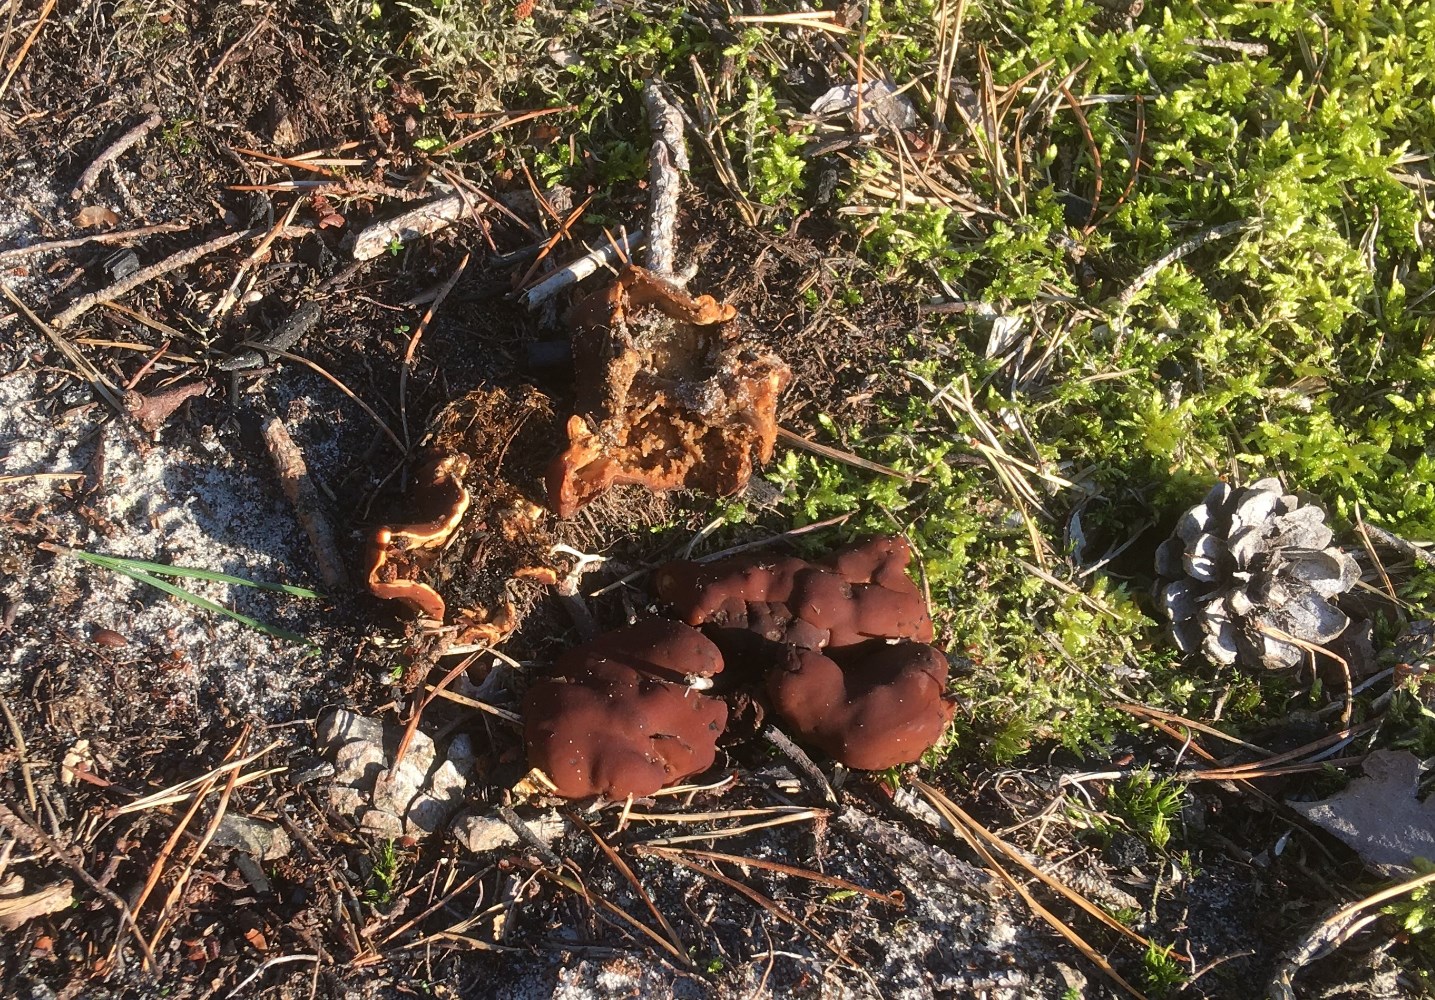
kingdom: Fungi
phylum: Ascomycota
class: Pezizomycetes
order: Pezizales
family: Rhizinaceae
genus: Rhizina
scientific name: Rhizina undulata
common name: rodmorkel
